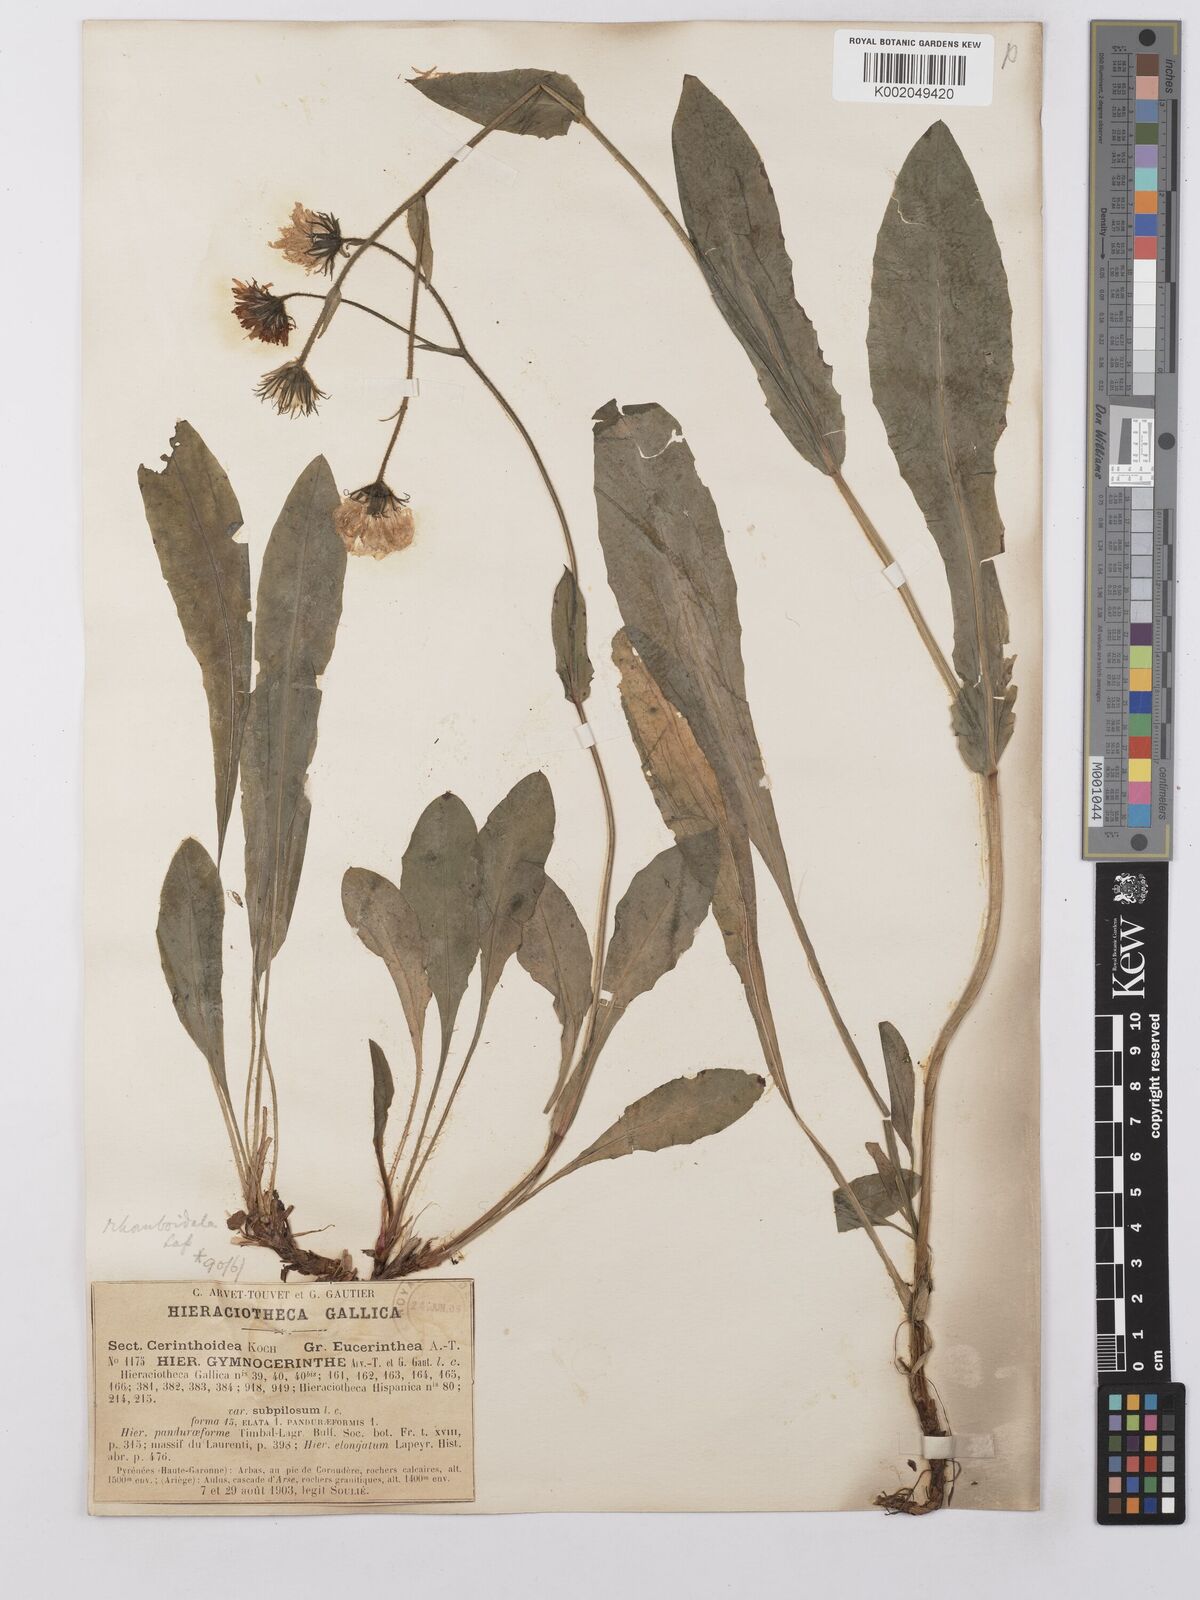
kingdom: Plantae
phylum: Tracheophyta
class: Magnoliopsida
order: Asterales
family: Asteraceae
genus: Hieracium
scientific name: Hieracium cerinthoides
